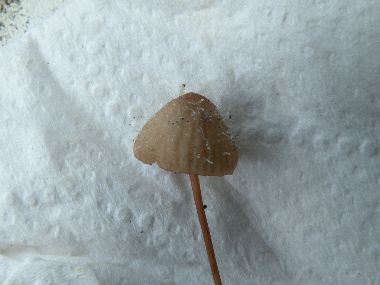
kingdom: Fungi
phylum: Mucoromycota
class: Mucoromycetes
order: Mucorales
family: Phycomycetaceae
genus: Spinellus
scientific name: Spinellus fusiger
